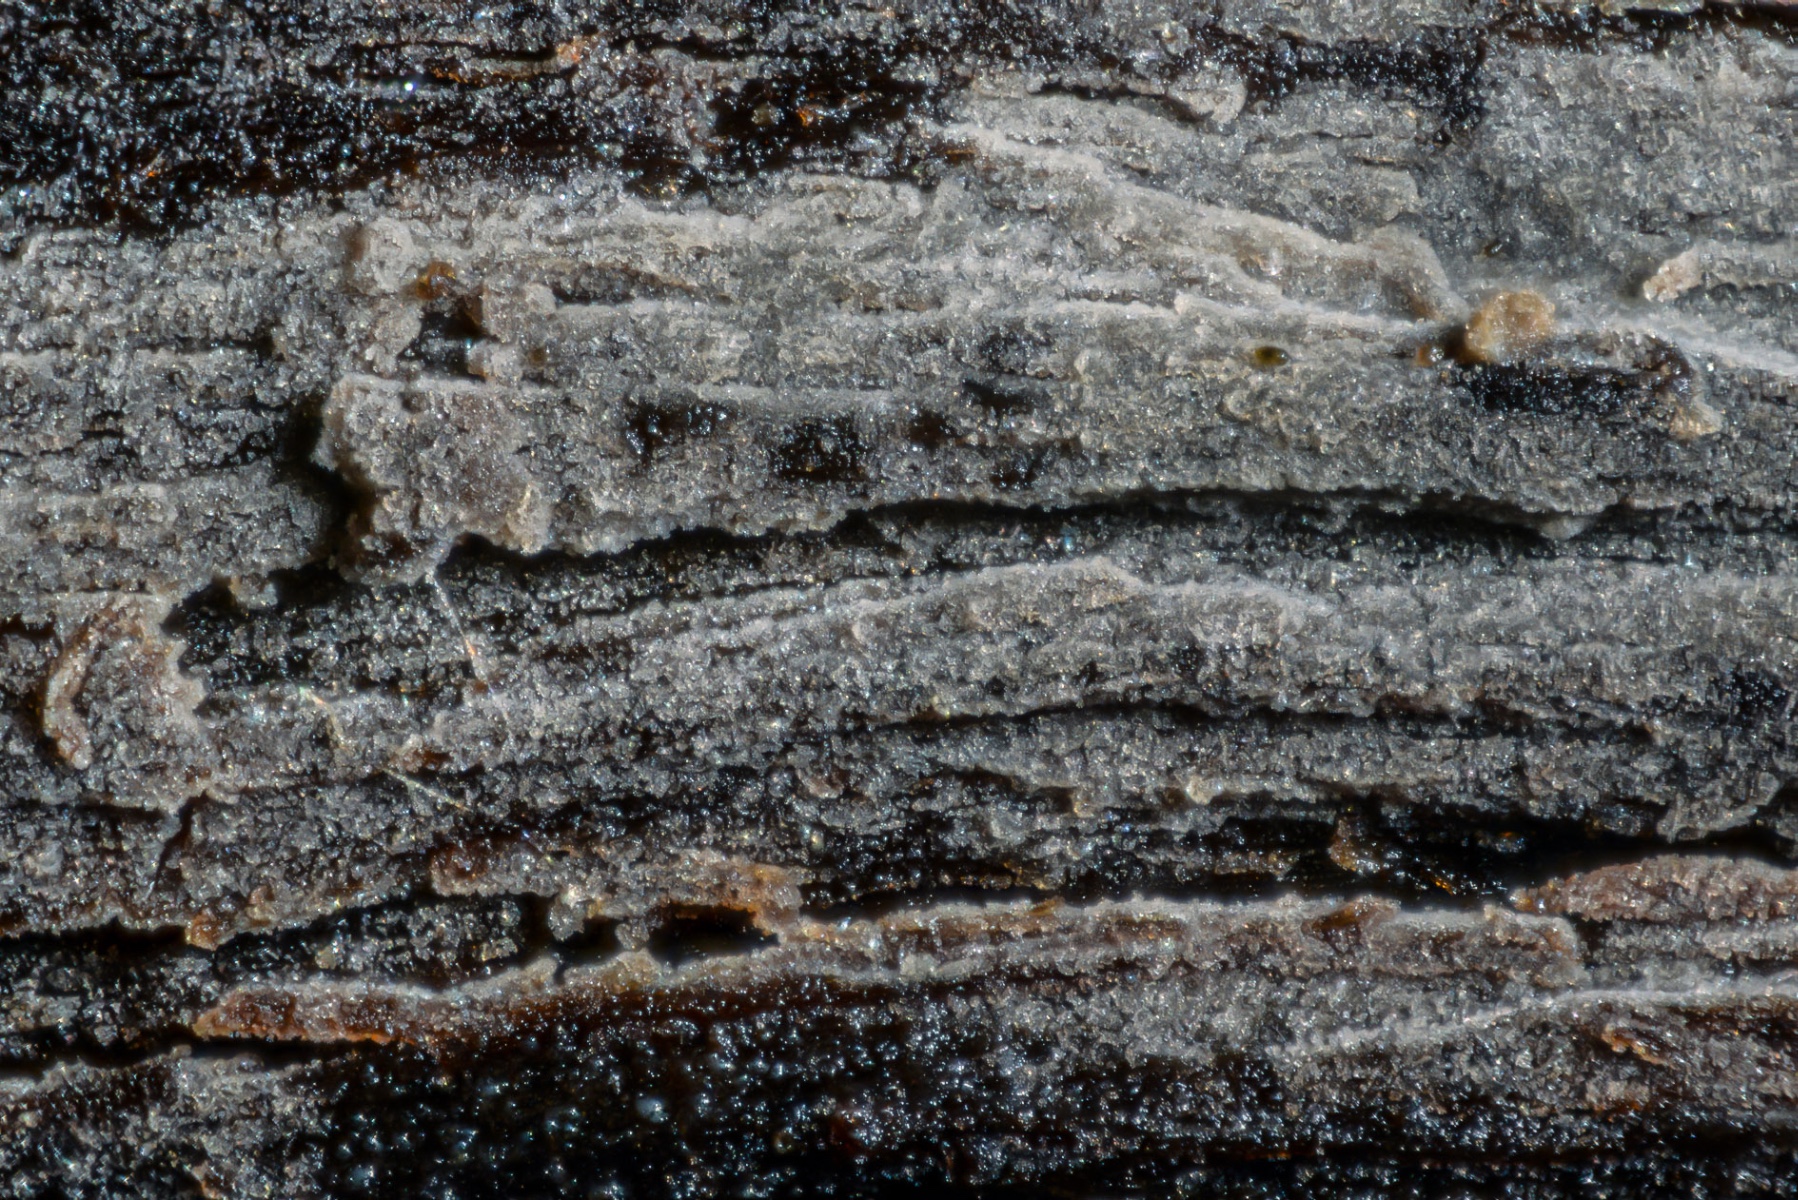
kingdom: Fungi
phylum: Basidiomycota
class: Agaricomycetes
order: Cantharellales
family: Hydnaceae
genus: Paullicorticium
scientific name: Paullicorticium pearsonii
